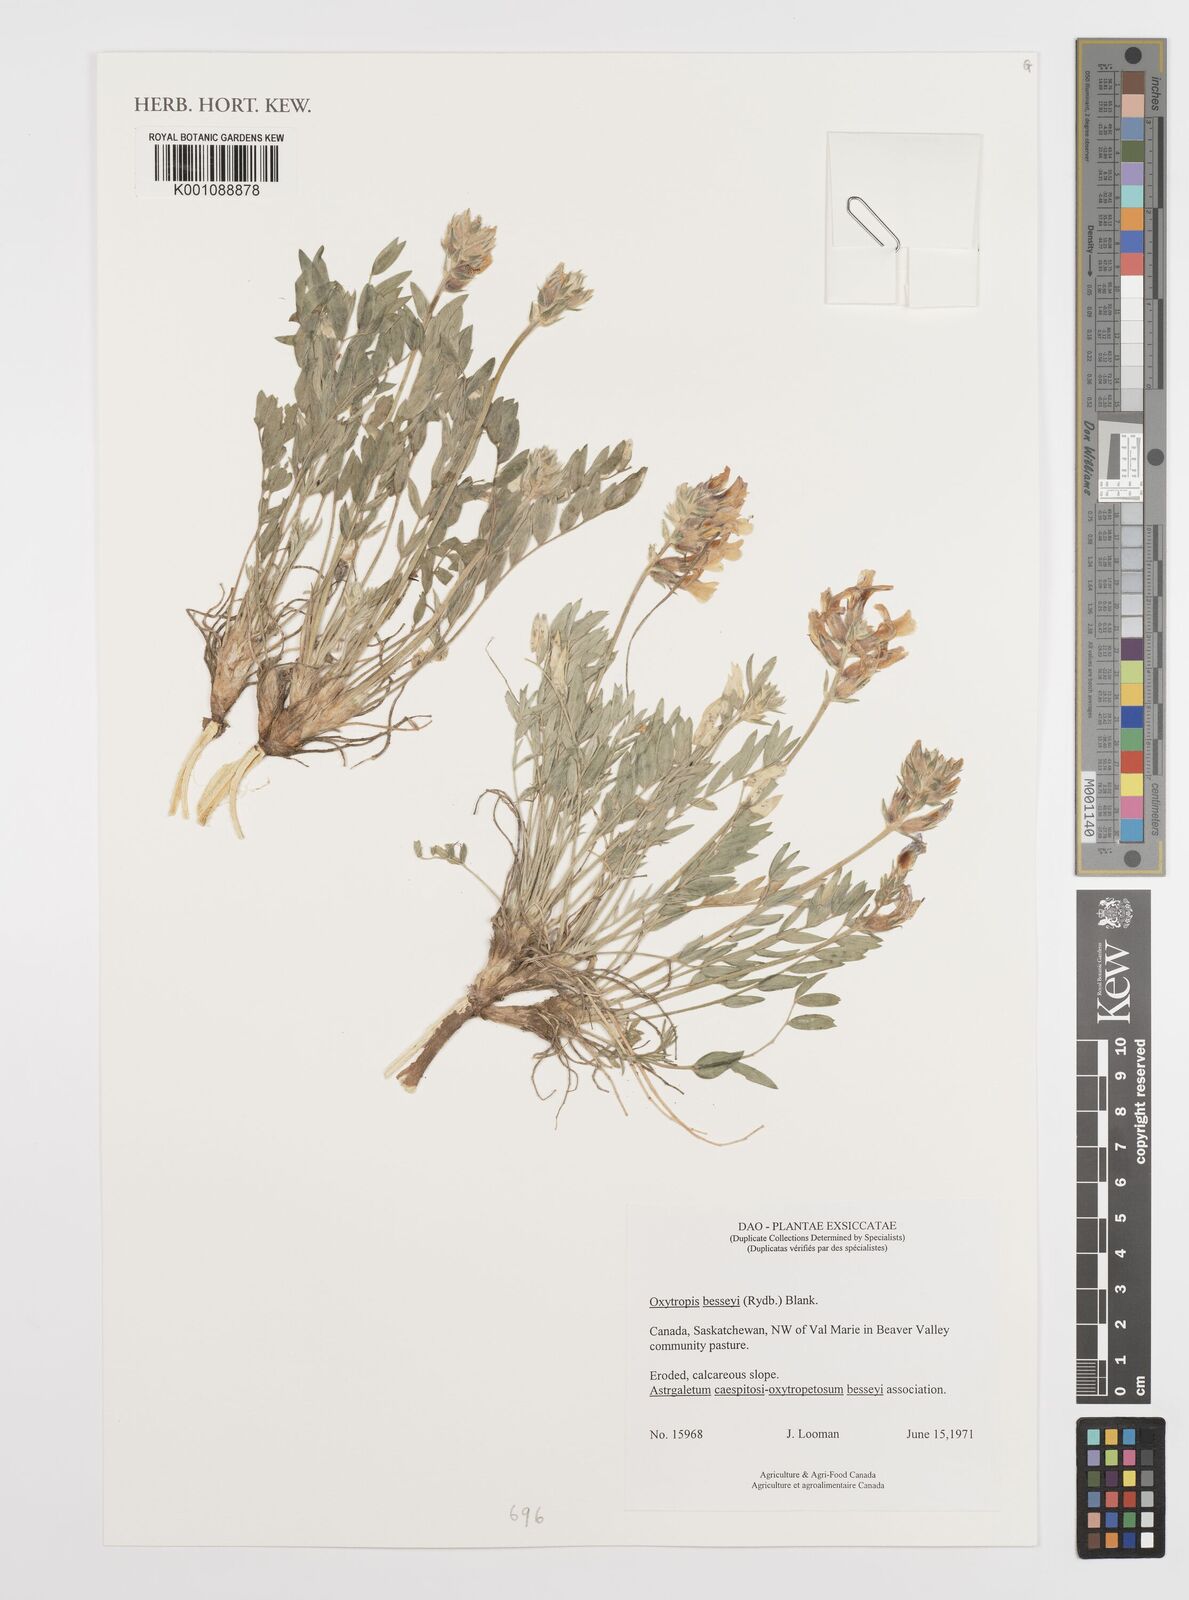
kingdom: Plantae
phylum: Tracheophyta
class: Magnoliopsida
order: Fabales
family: Fabaceae
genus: Oxytropis
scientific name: Oxytropis besseyi
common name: Bessey's locoweed
